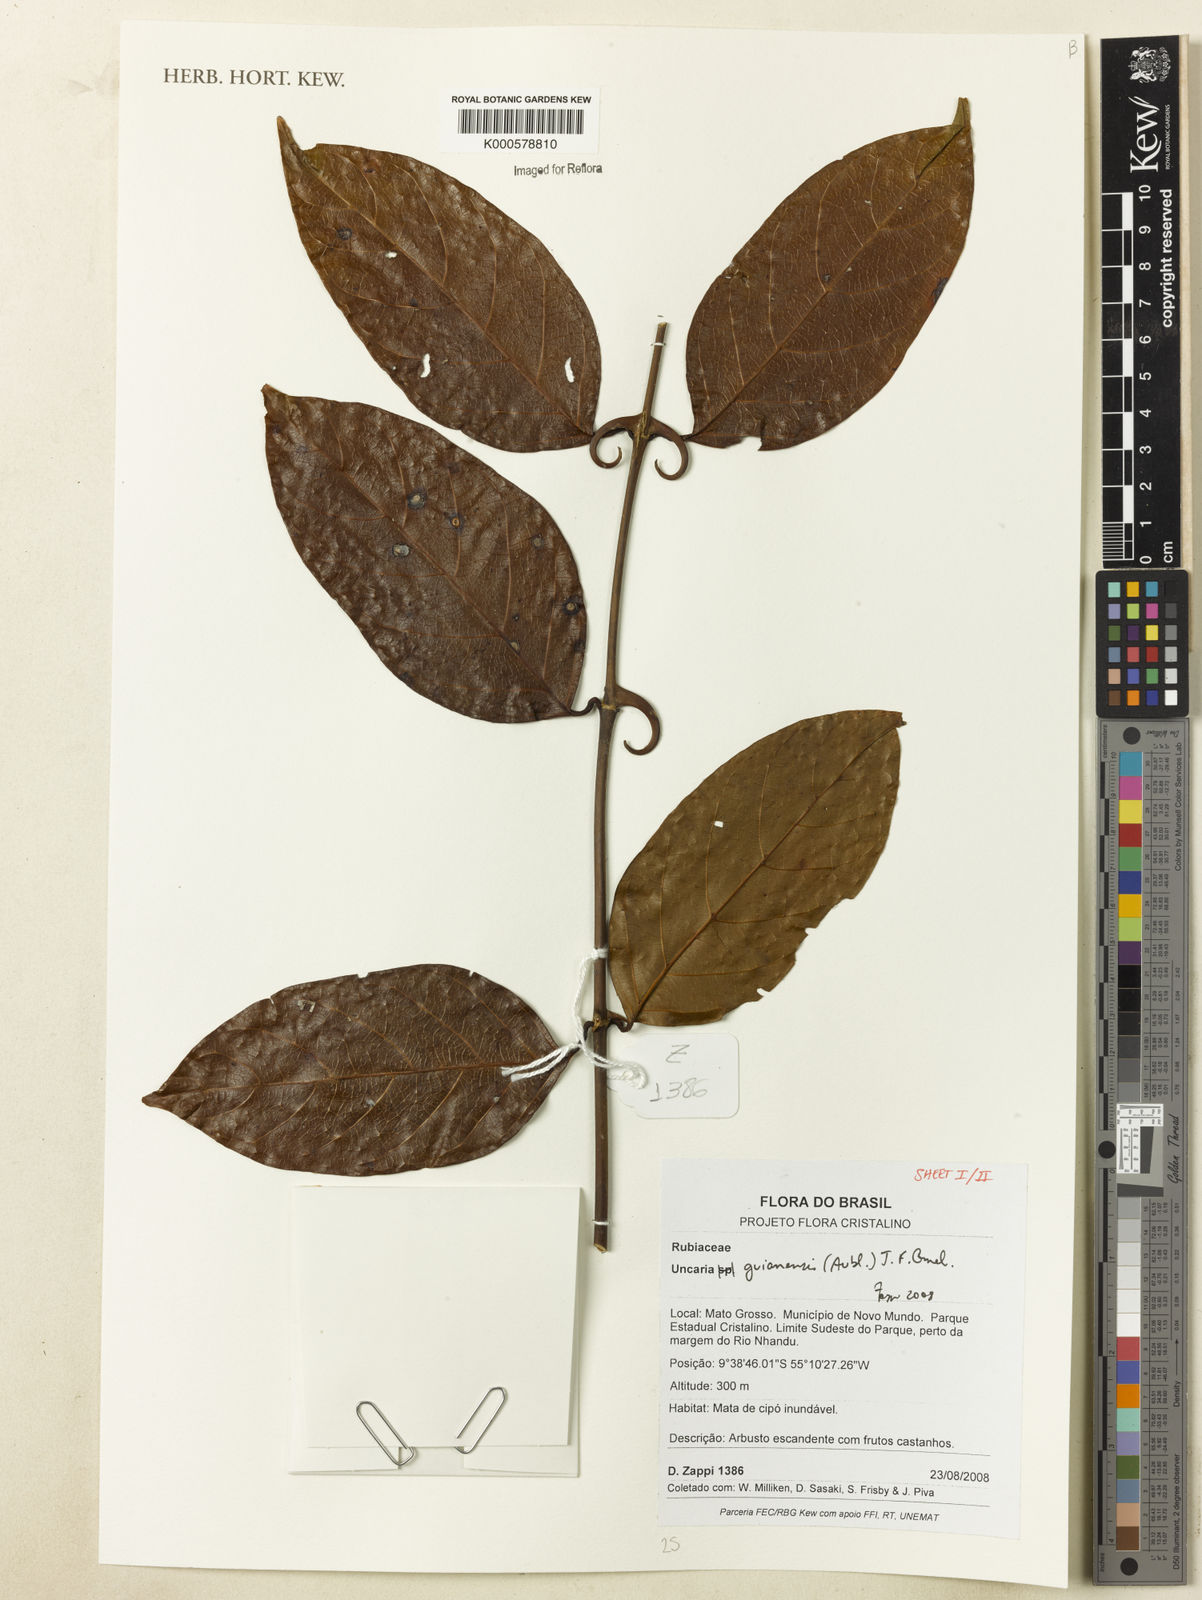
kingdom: Plantae
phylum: Tracheophyta
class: Magnoliopsida
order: Gentianales
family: Rubiaceae
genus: Uncaria
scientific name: Uncaria guianensis
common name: Cat's-claw
